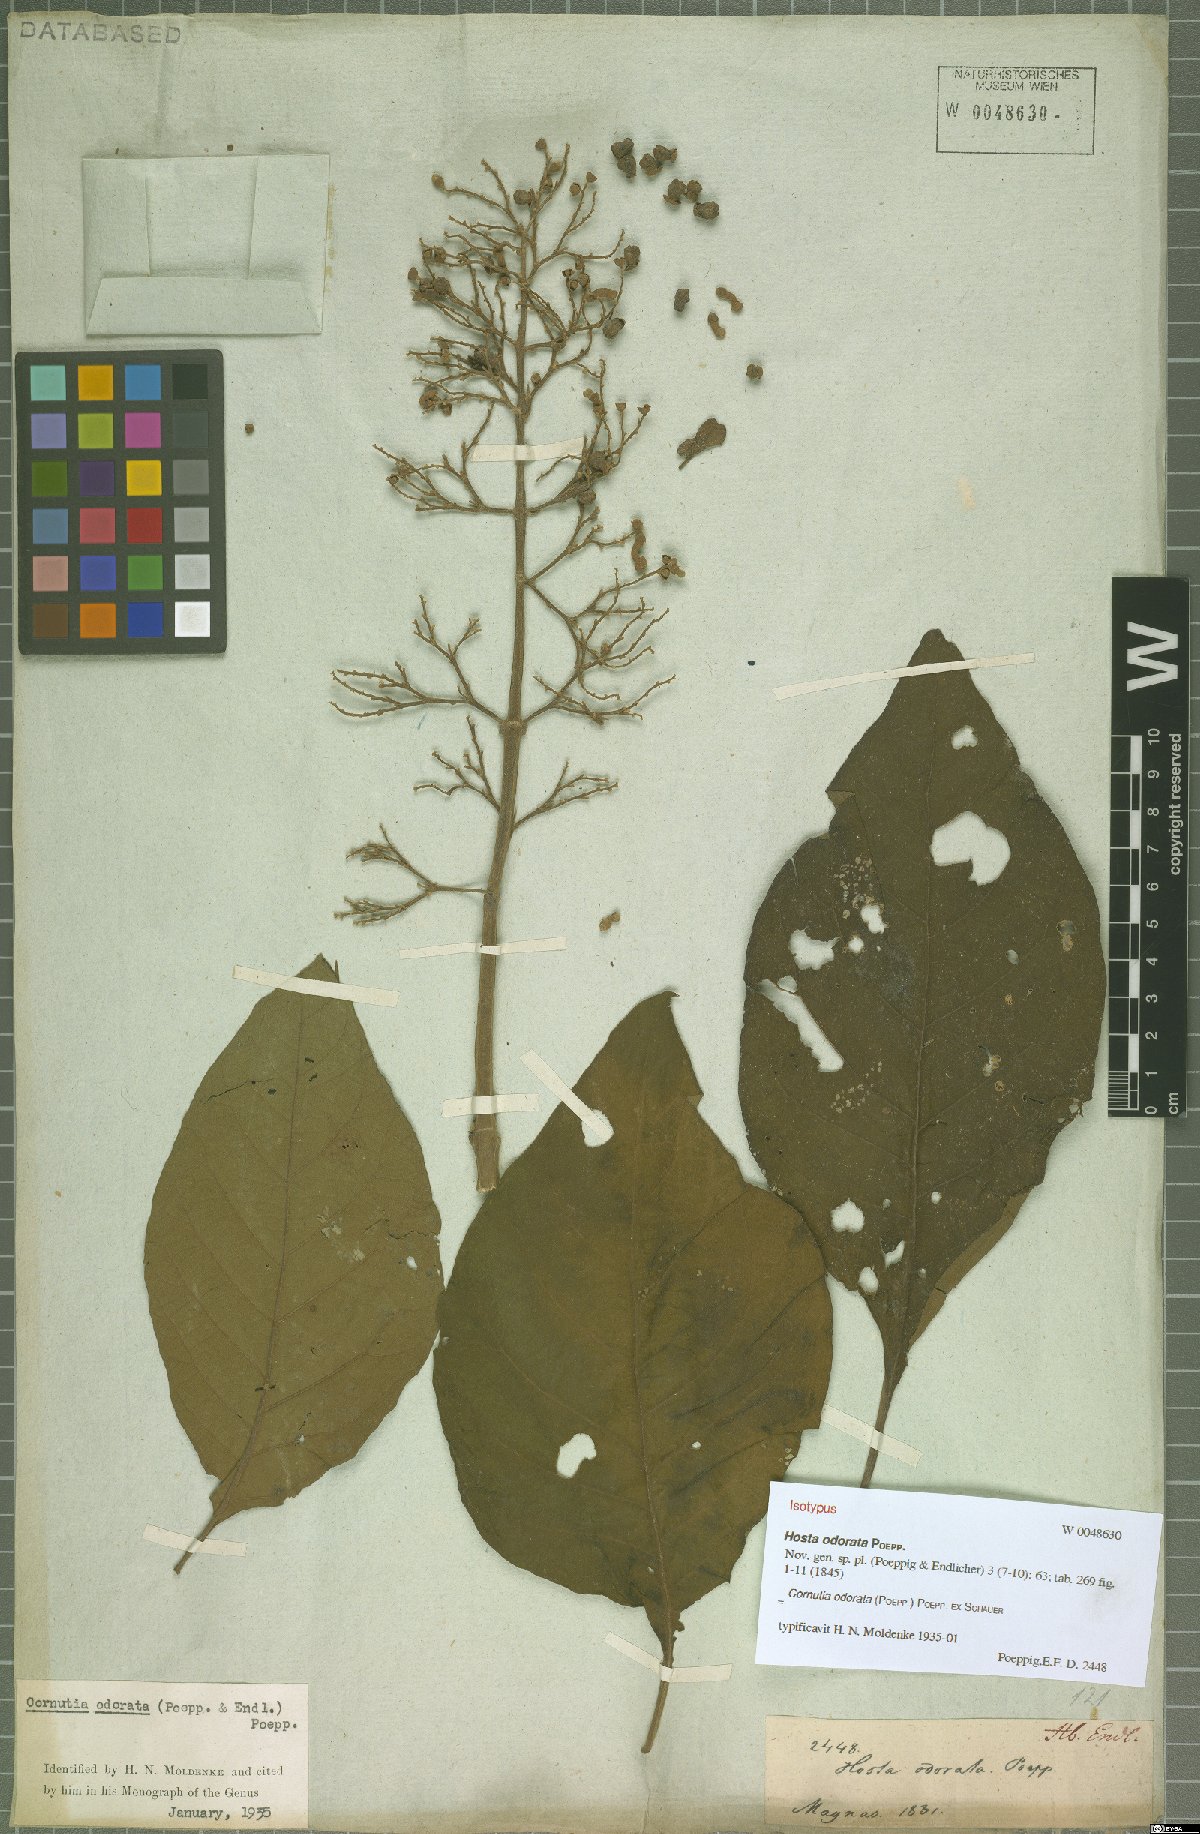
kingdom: Plantae
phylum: Tracheophyta
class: Magnoliopsida
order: Lamiales
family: Lamiaceae
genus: Cornutia
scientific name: Cornutia odorata
